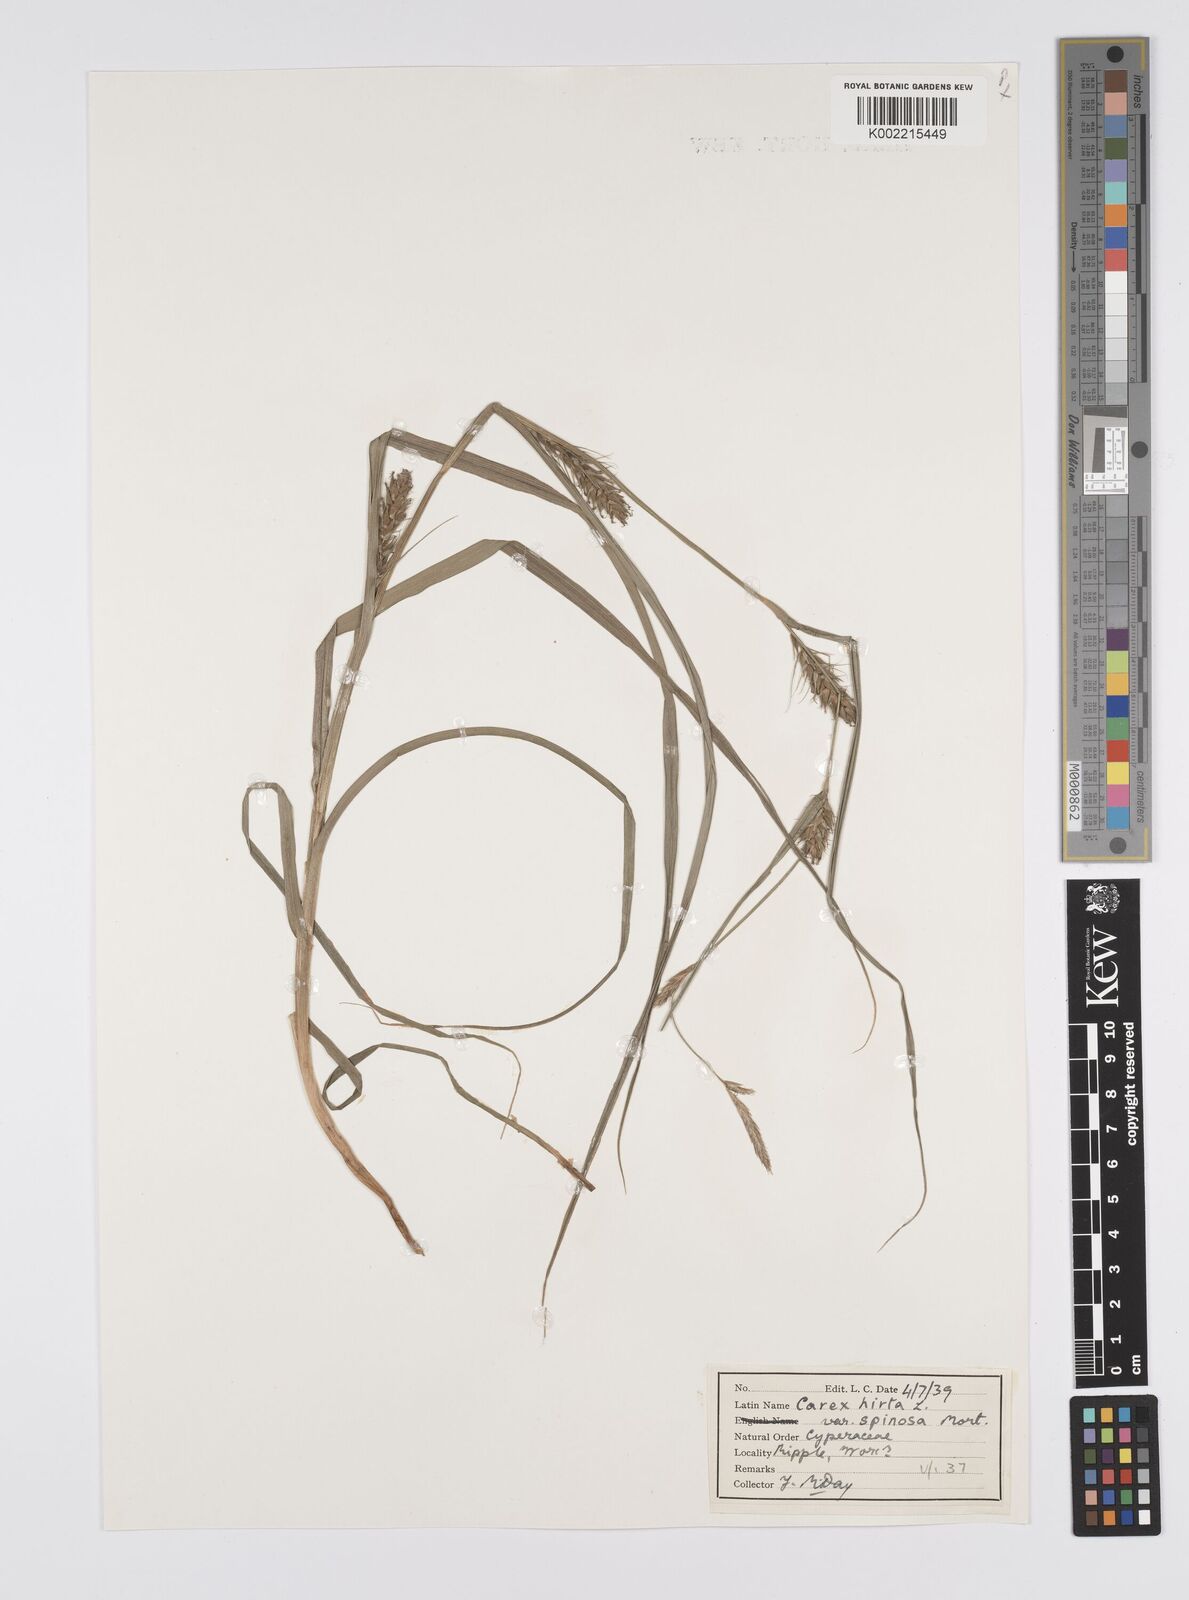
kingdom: Plantae
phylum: Tracheophyta
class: Liliopsida
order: Poales
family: Cyperaceae
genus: Carex
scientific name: Carex hirta
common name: Hairy sedge
